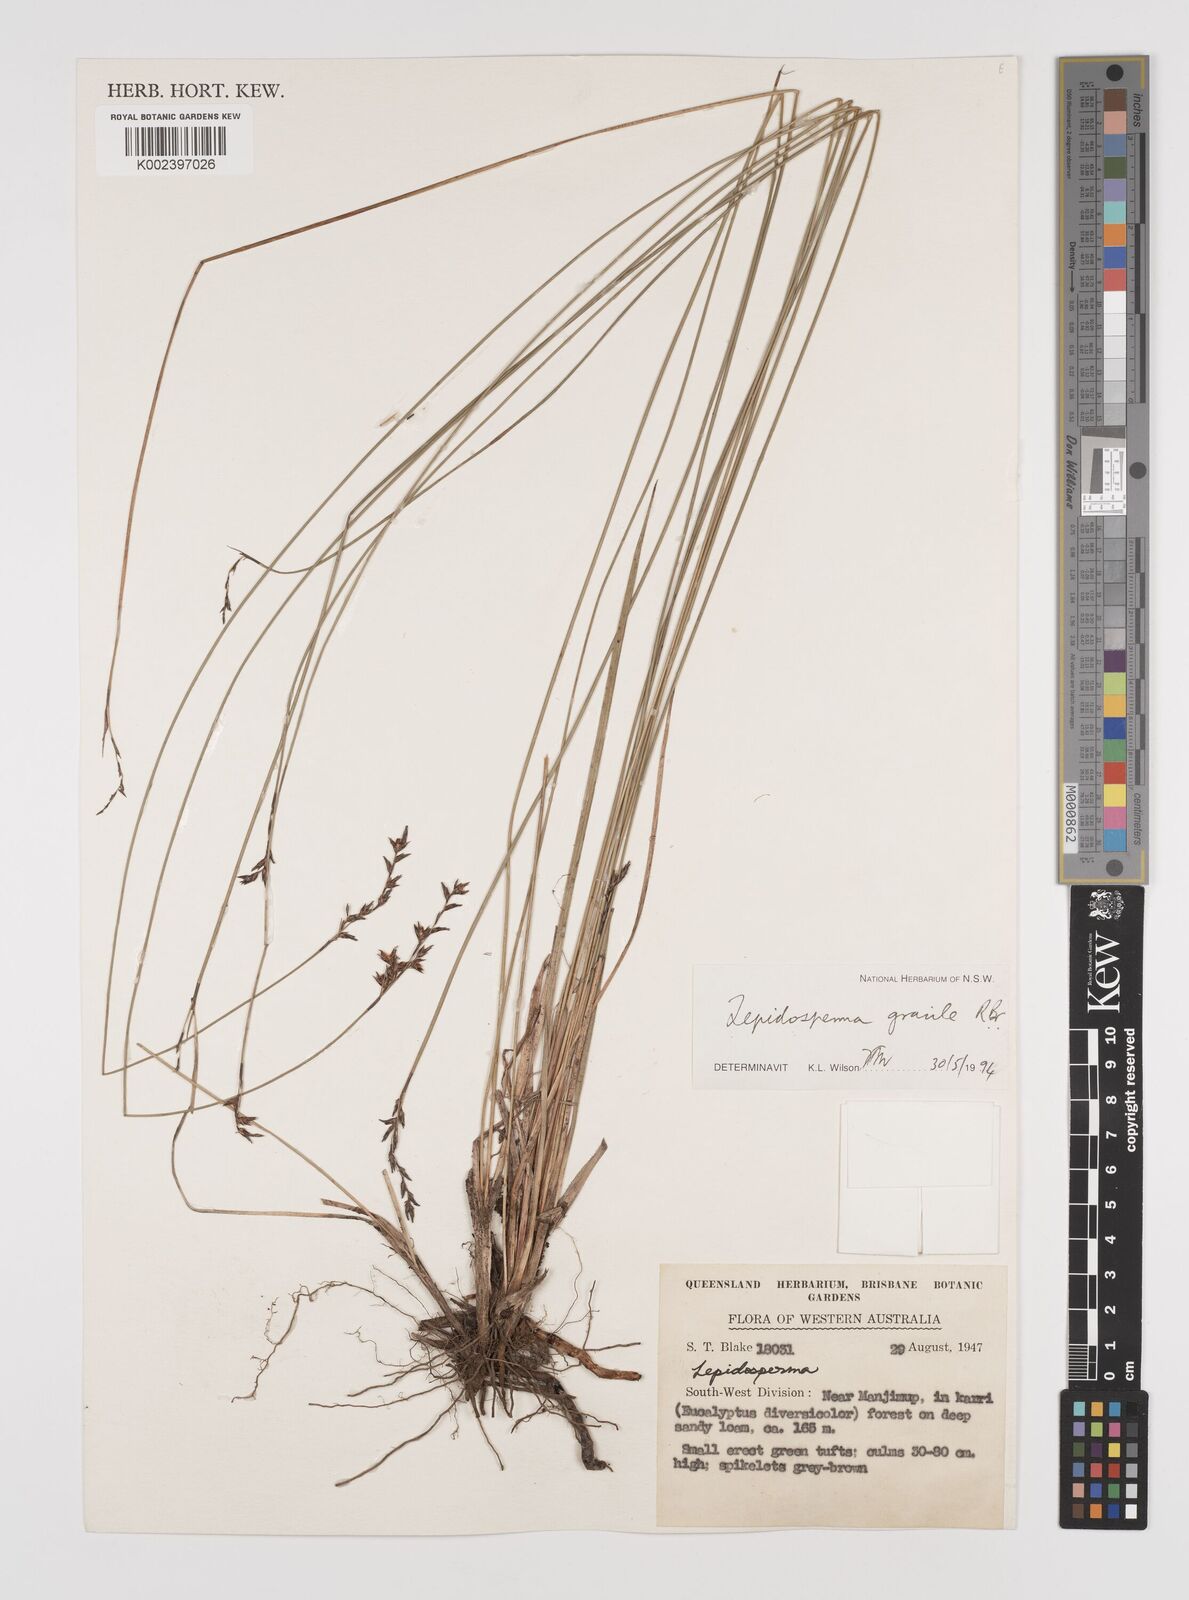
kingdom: Plantae
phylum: Tracheophyta
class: Liliopsida
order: Poales
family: Cyperaceae
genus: Lepidosperma
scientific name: Lepidosperma gracile
